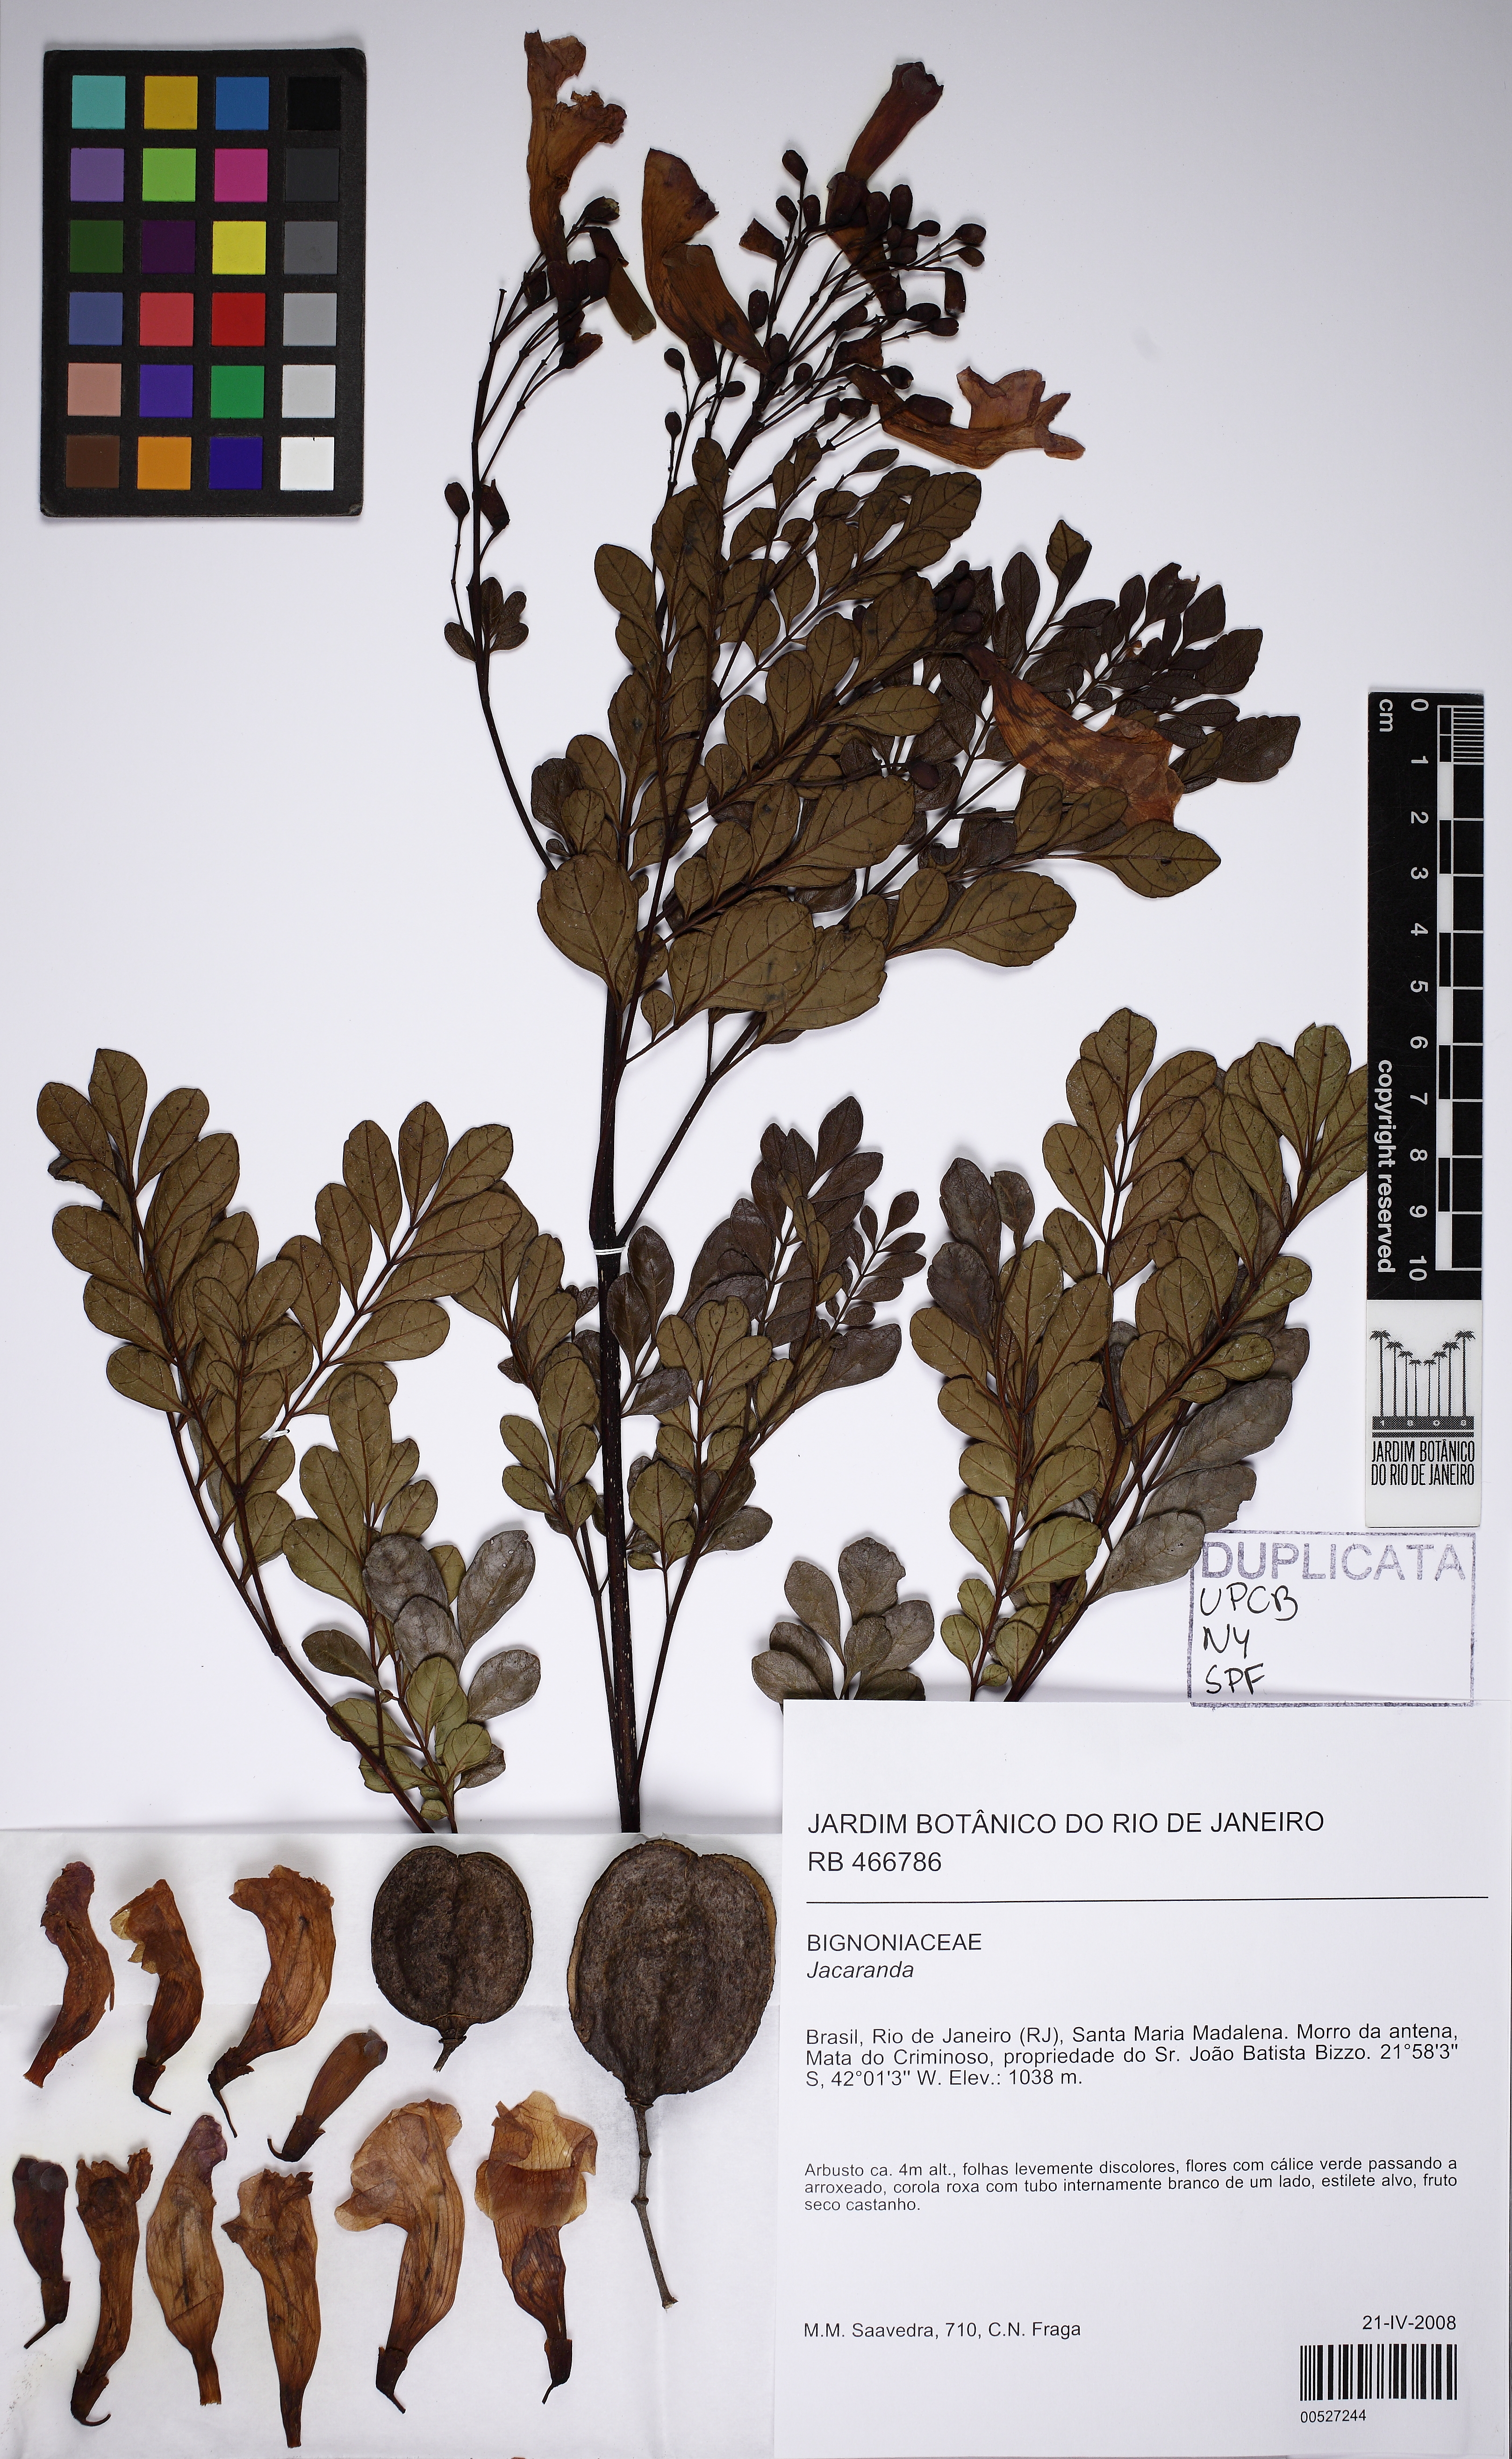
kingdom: Plantae
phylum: Tracheophyta
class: Magnoliopsida
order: Lamiales
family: Bignoniaceae
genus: Jacaranda
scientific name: Jacaranda
